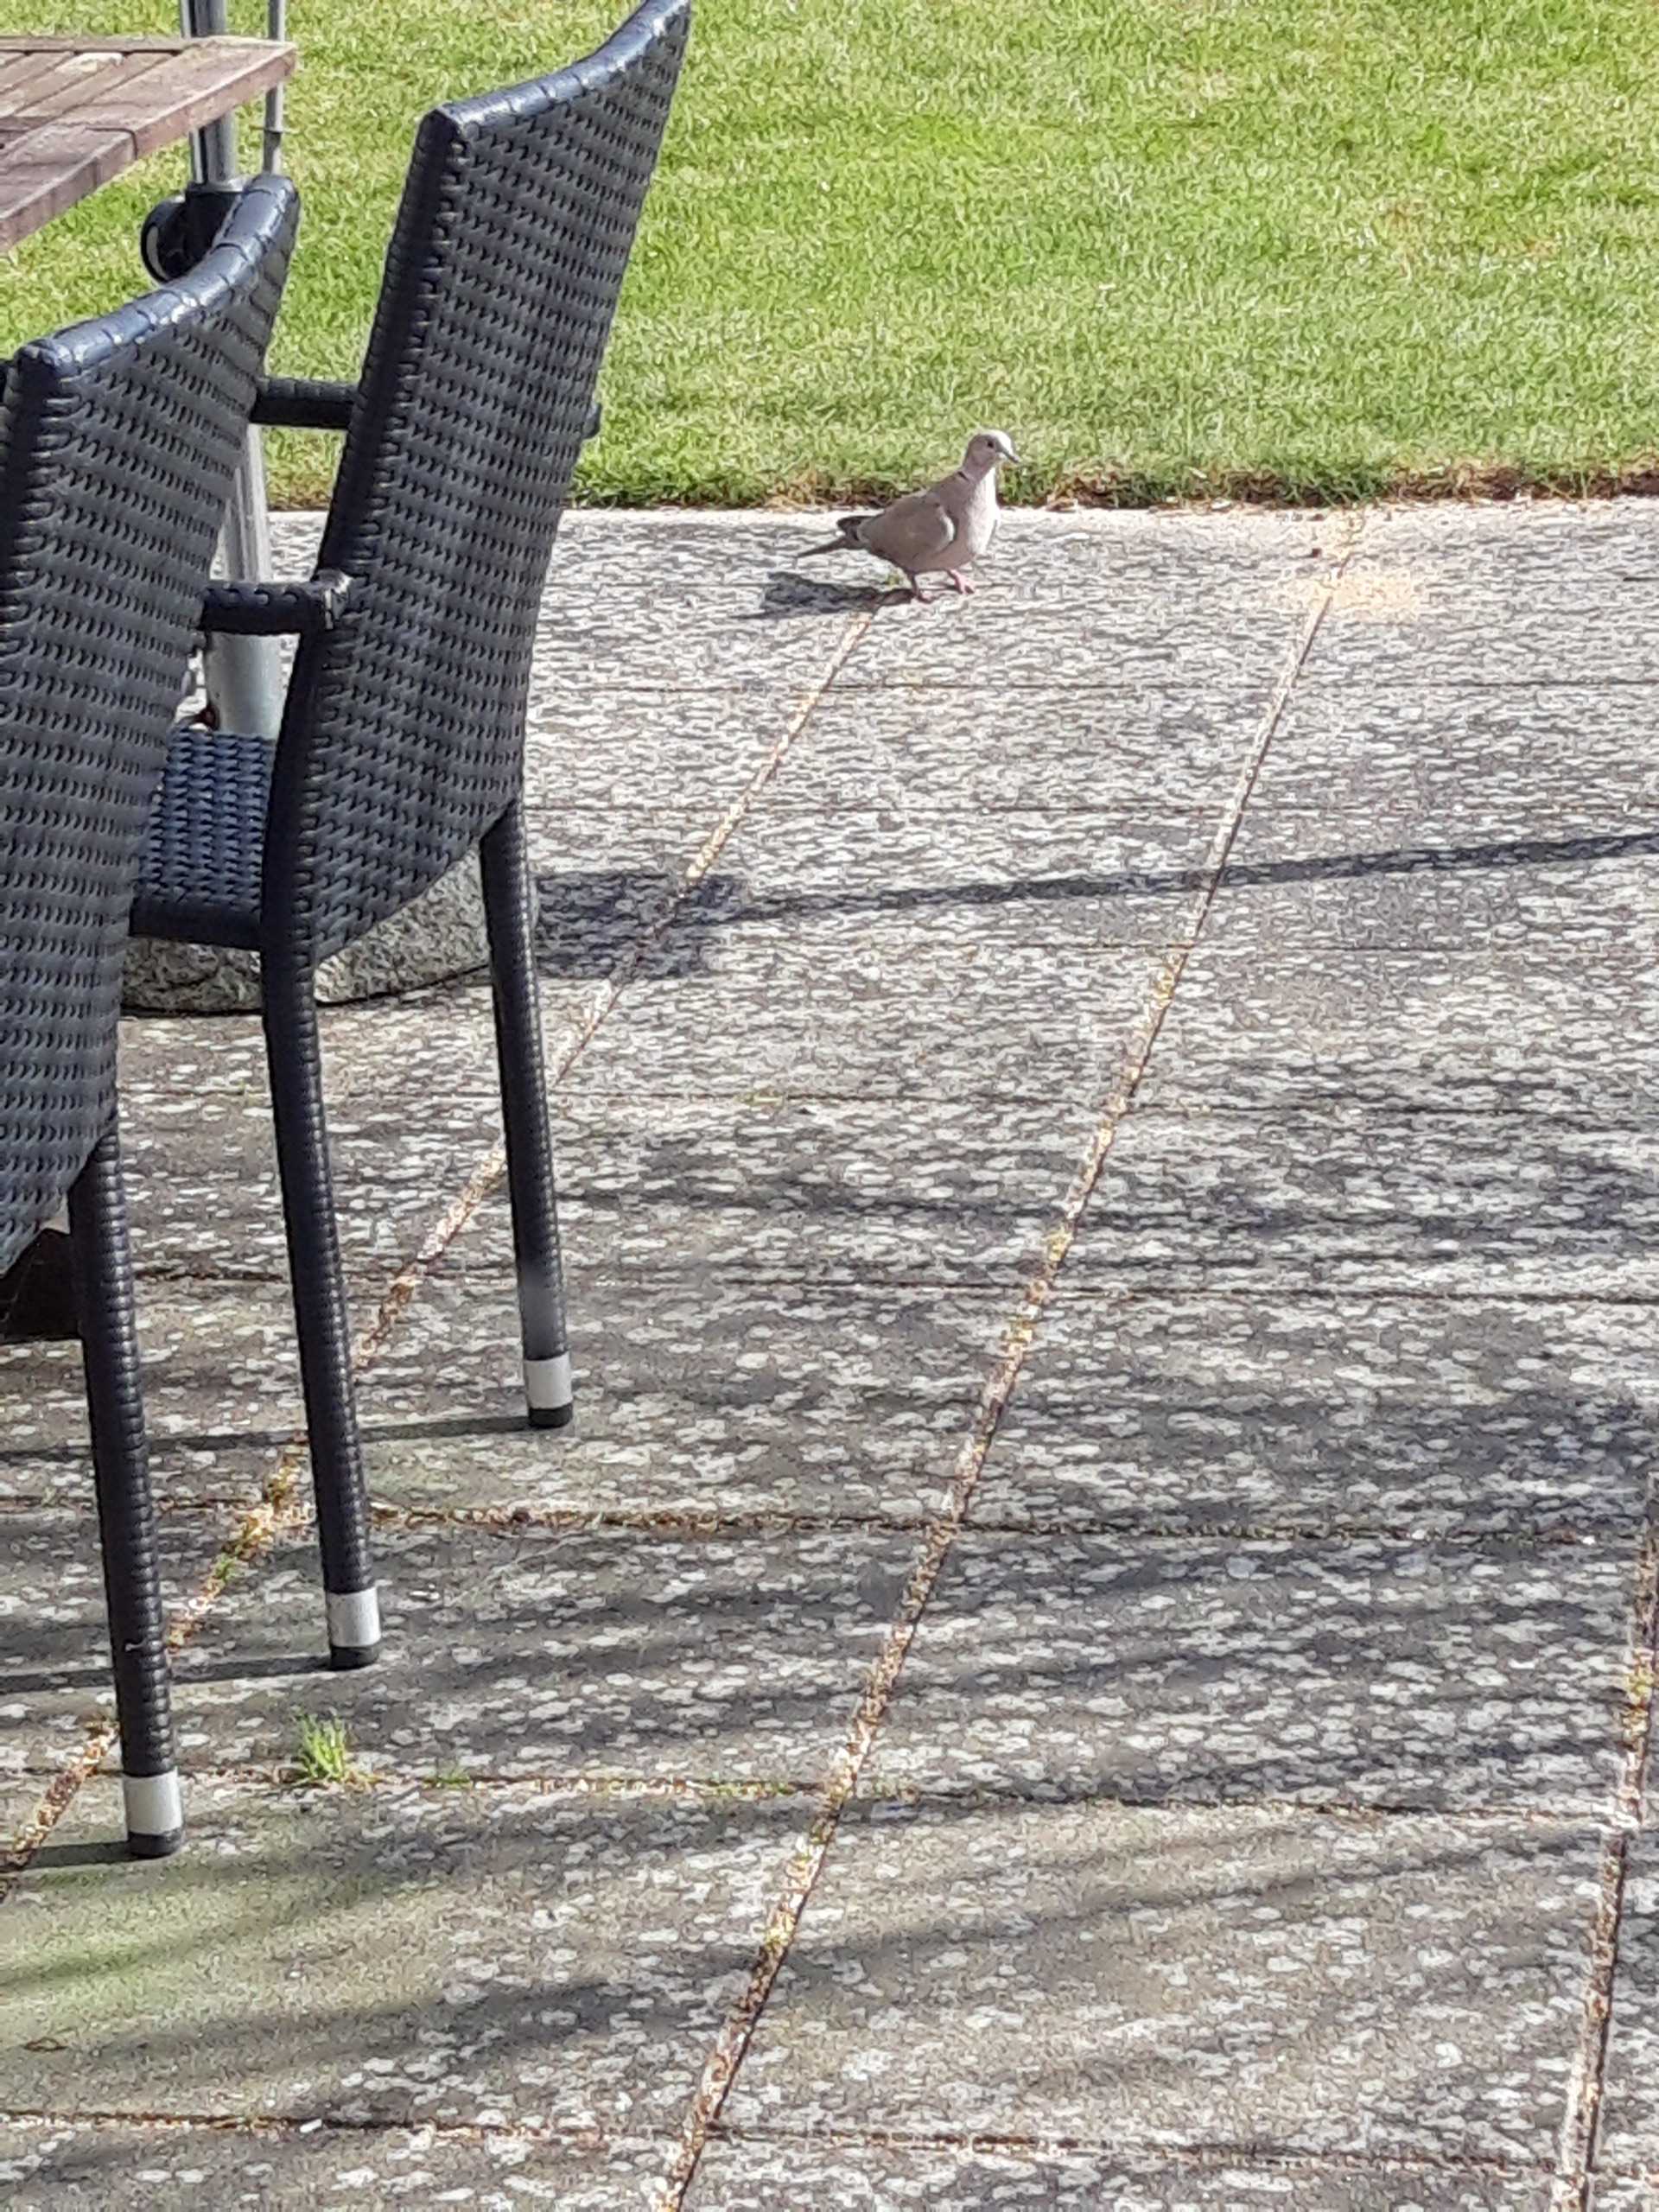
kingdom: Animalia
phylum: Chordata
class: Aves
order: Columbiformes
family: Columbidae
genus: Streptopelia
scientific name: Streptopelia decaocto
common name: Tyrkerdue
